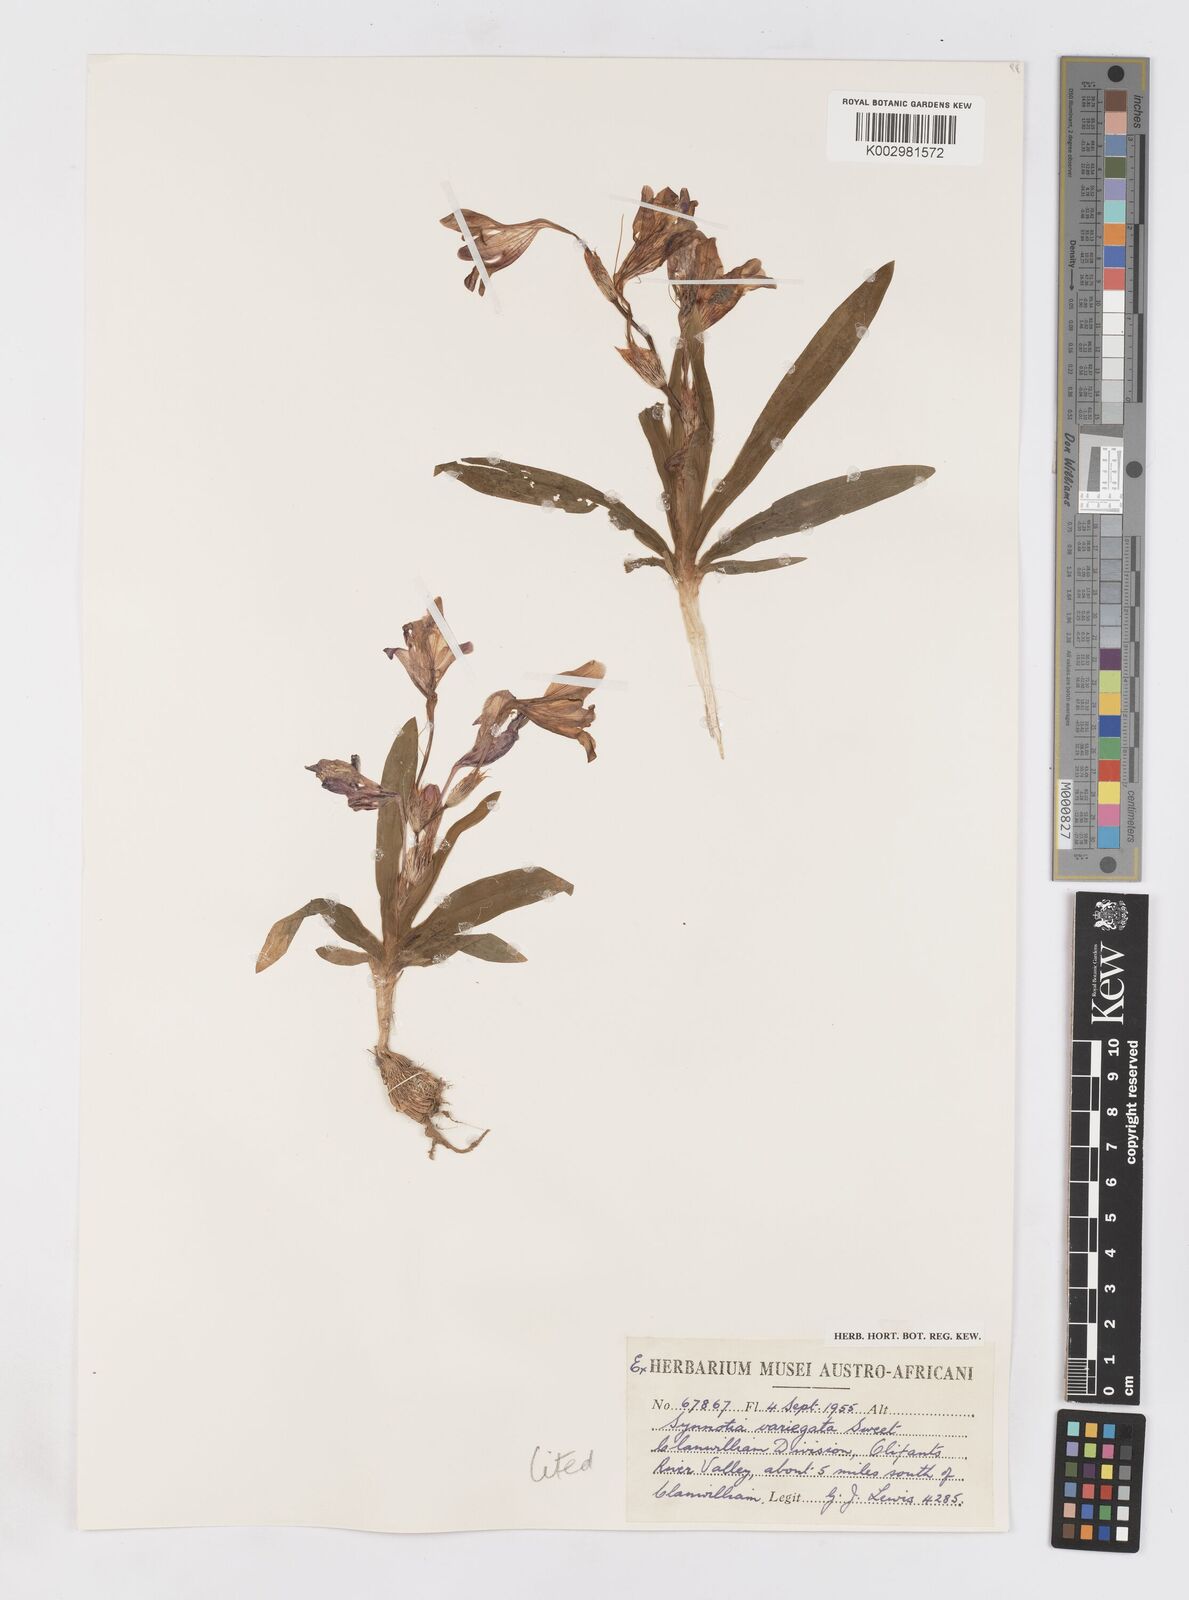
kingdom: Plantae
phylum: Tracheophyta
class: Liliopsida
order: Asparagales
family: Iridaceae
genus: Sparaxis
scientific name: Sparaxis variegata
